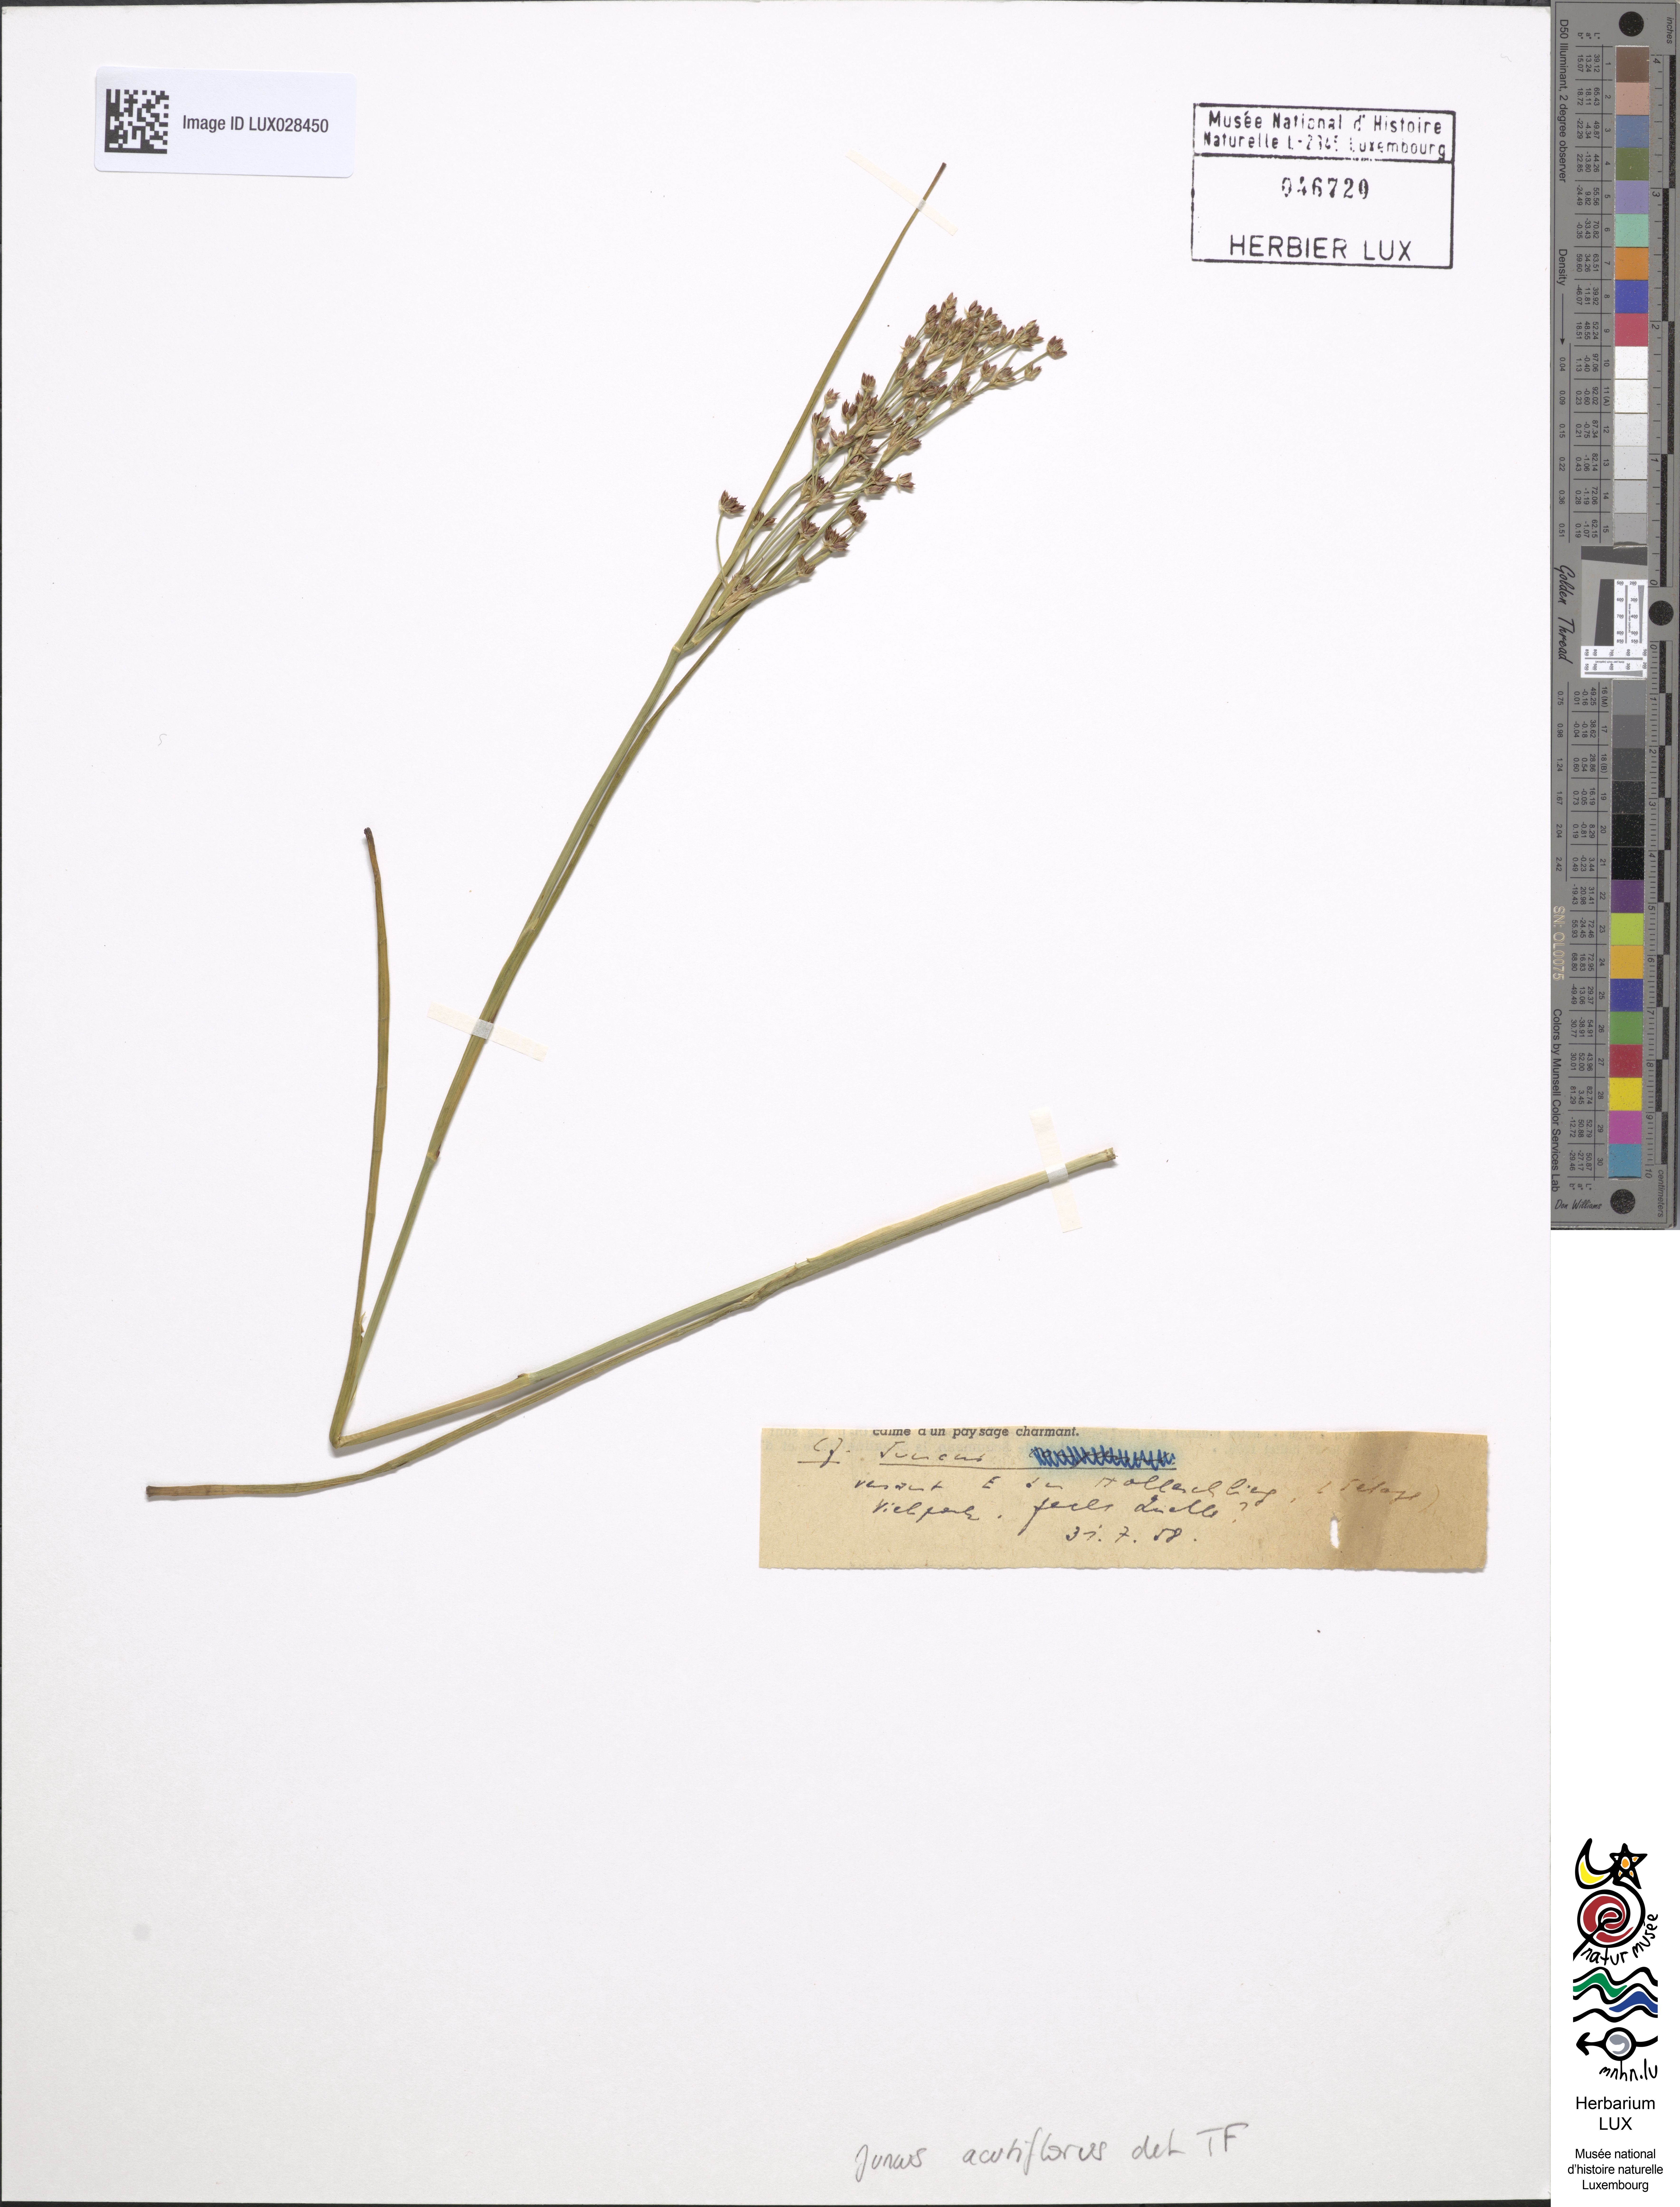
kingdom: Plantae
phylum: Tracheophyta
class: Liliopsida
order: Poales
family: Juncaceae
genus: Juncus
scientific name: Juncus acutiflorus
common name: Sharp-flowered rush
